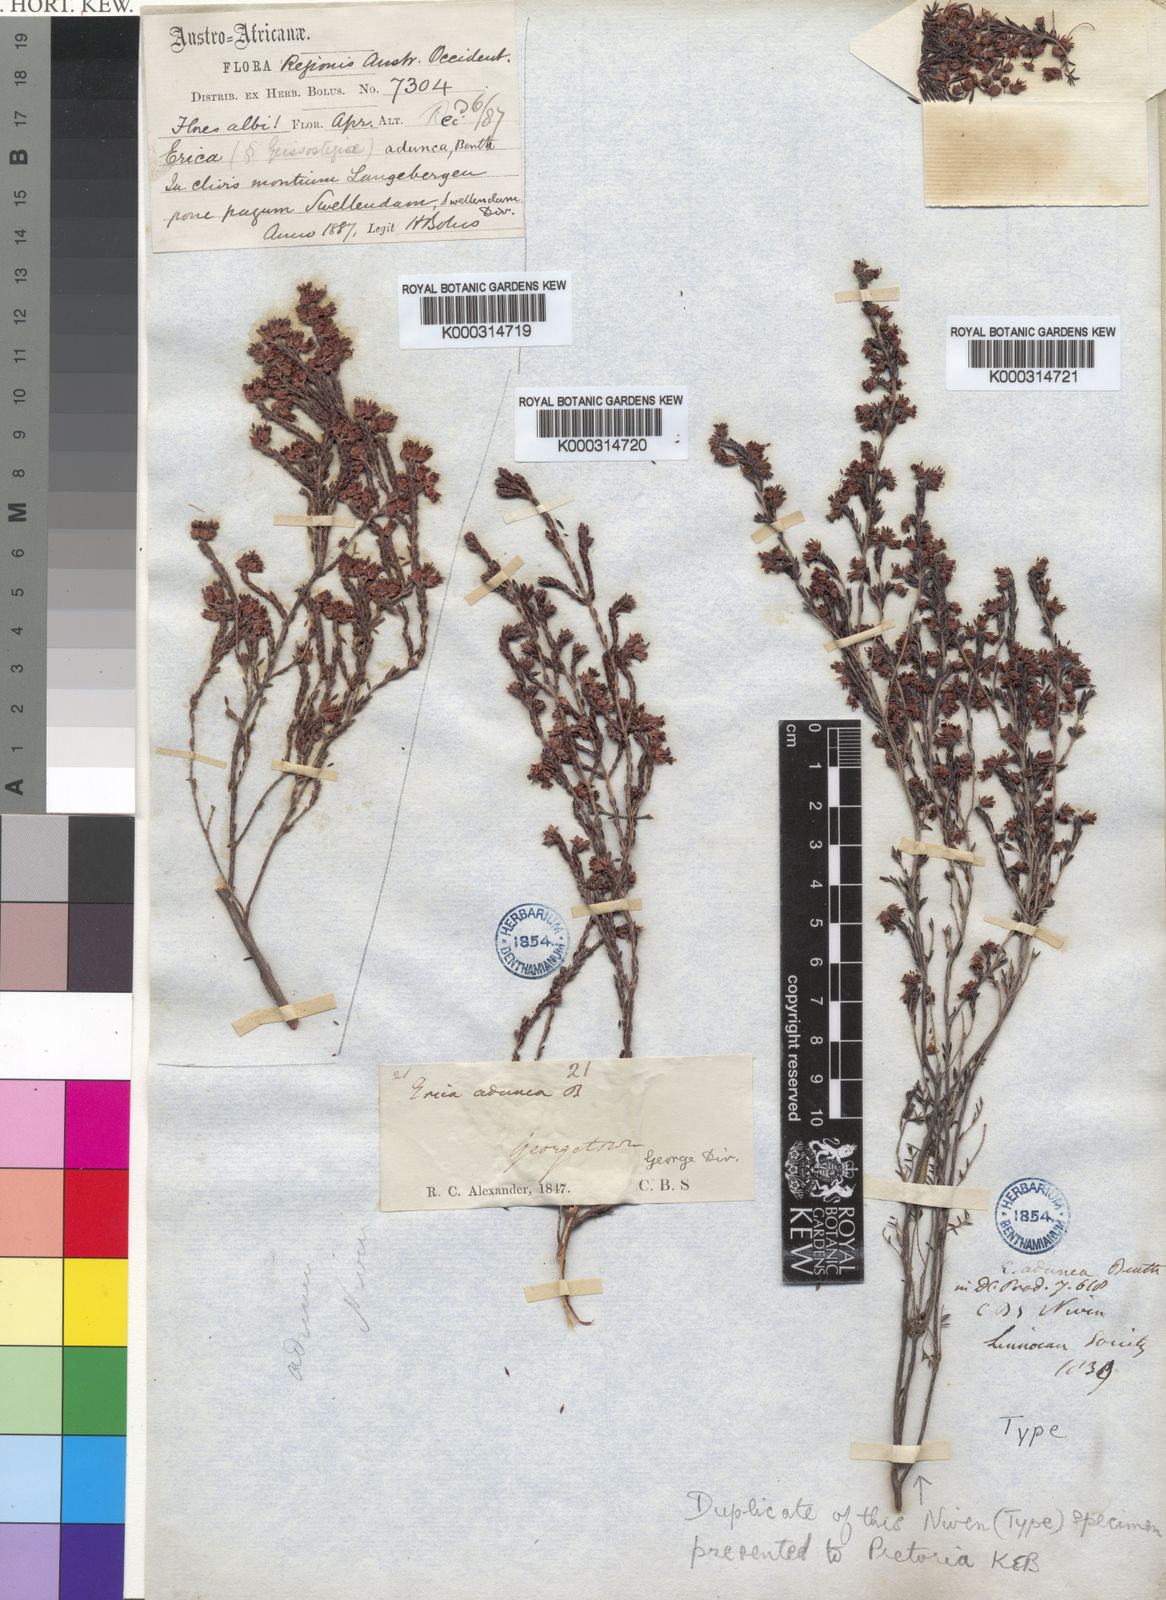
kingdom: Plantae
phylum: Tracheophyta
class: Magnoliopsida
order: Ericales
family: Ericaceae
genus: Erica
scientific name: Erica triceps
